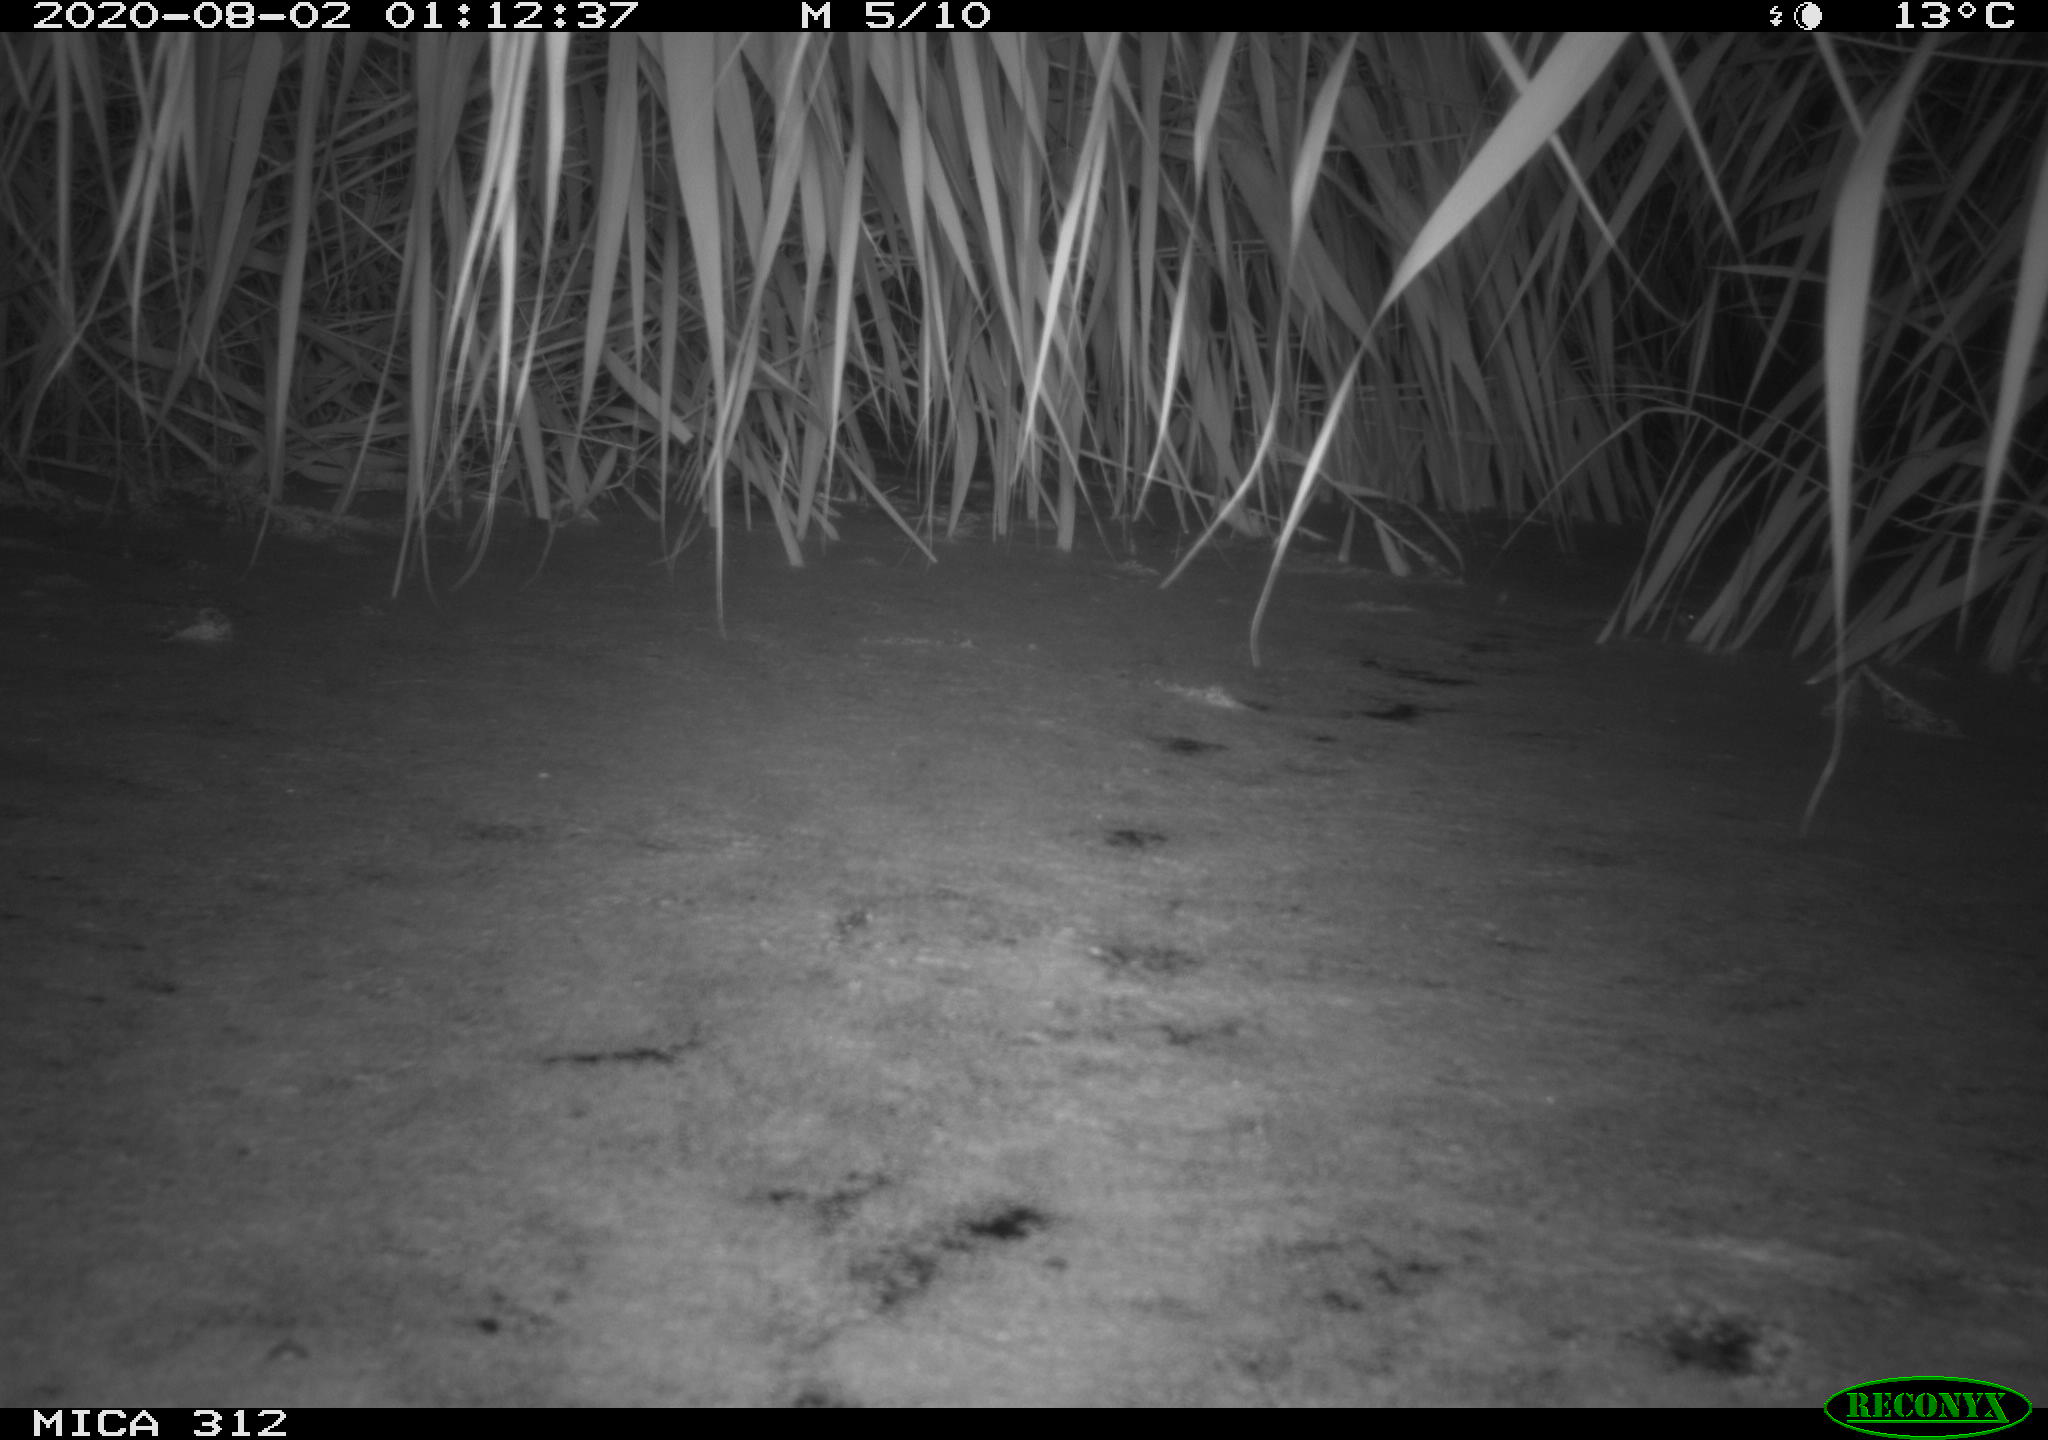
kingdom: Animalia
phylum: Chordata
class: Mammalia
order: Rodentia
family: Muridae
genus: Rattus
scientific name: Rattus norvegicus
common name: Brown rat
